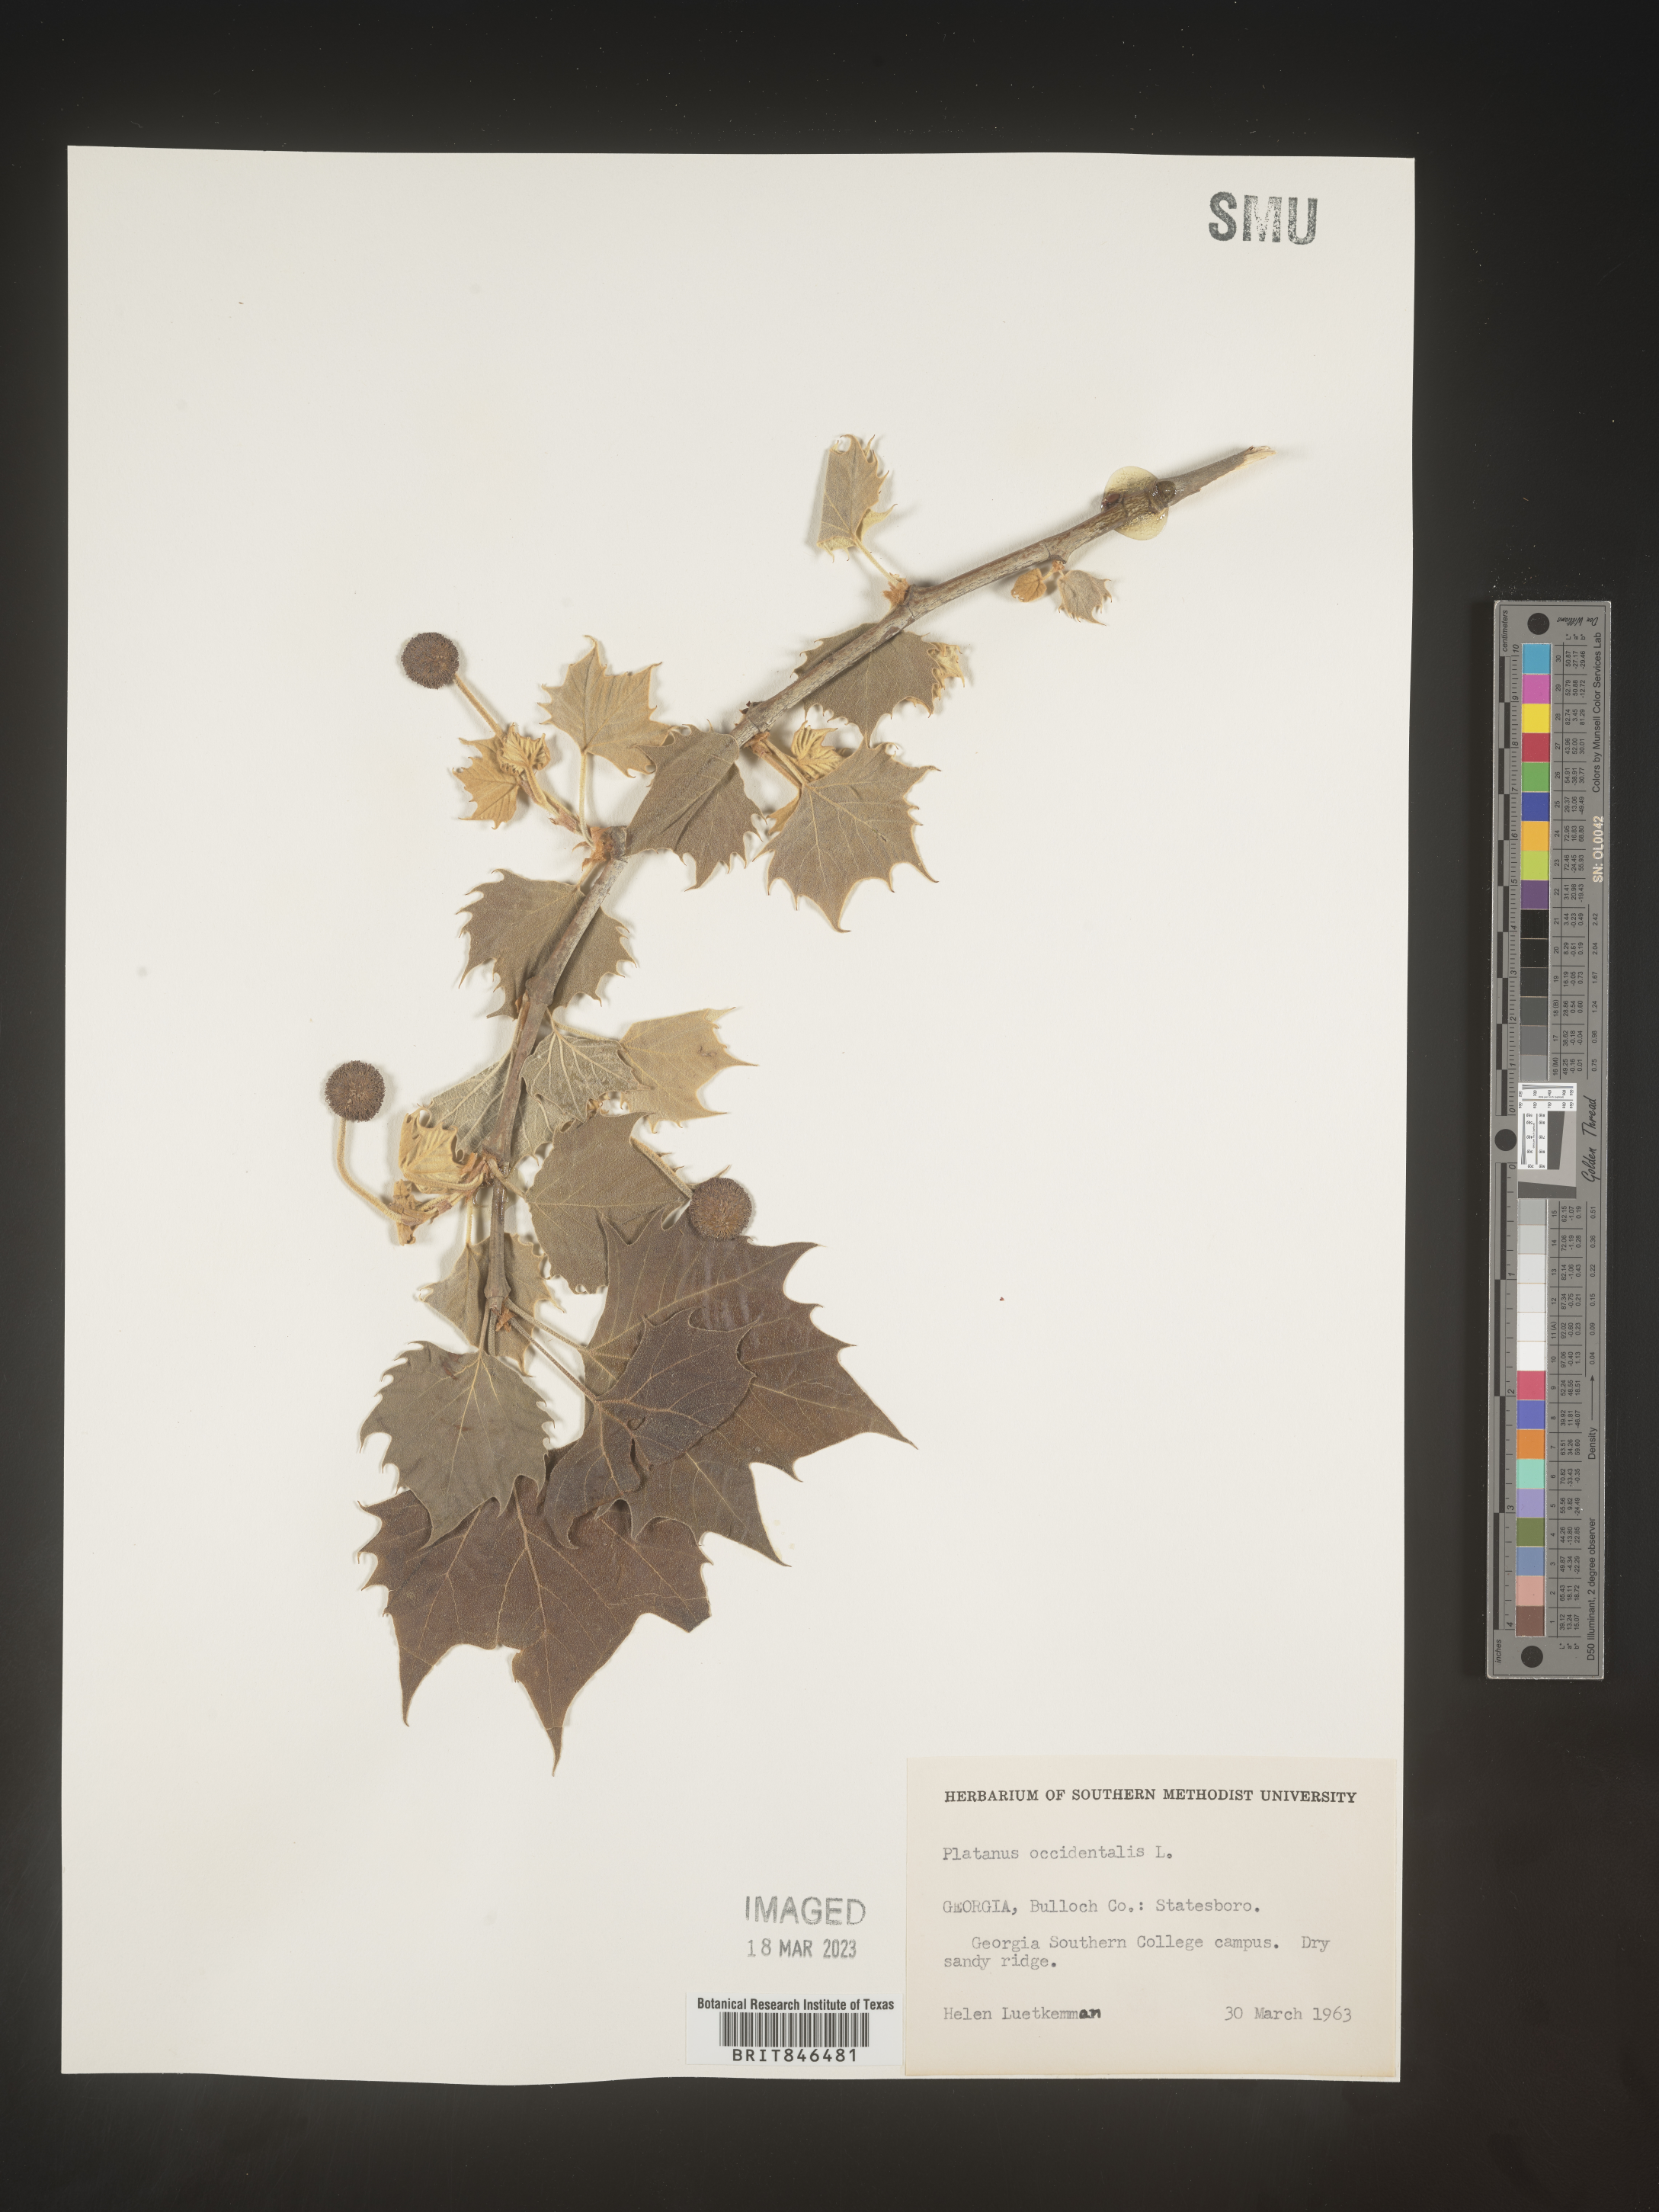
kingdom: Plantae
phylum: Tracheophyta
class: Magnoliopsida
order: Proteales
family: Platanaceae
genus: Platanus
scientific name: Platanus occidentalis
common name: American sycamore
